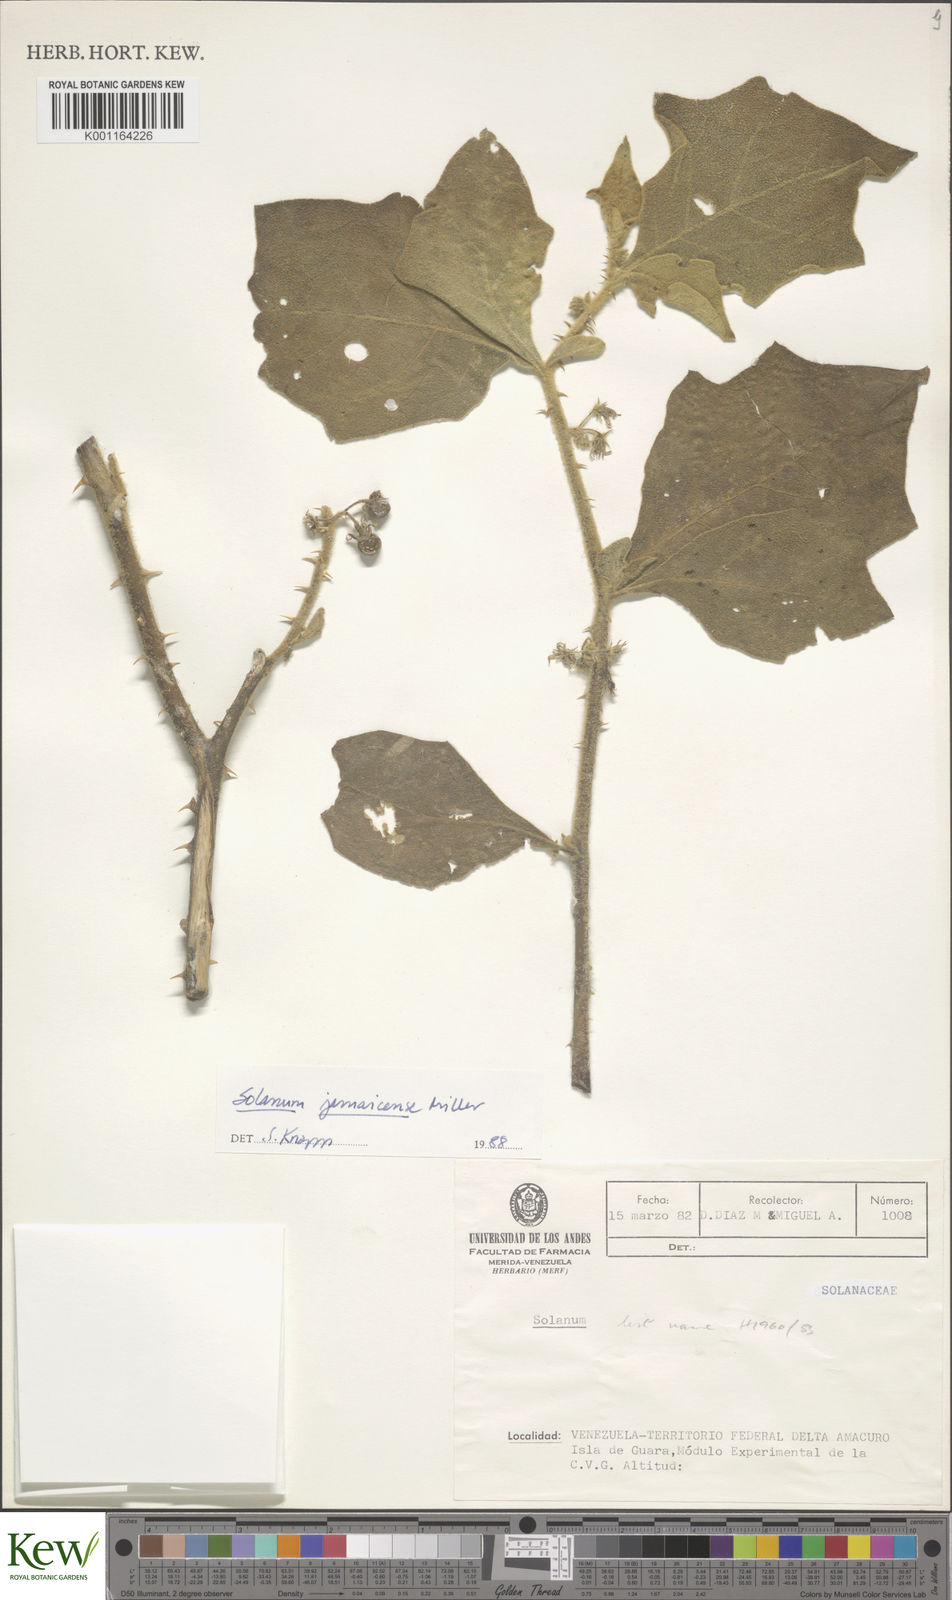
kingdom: Plantae
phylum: Tracheophyta
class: Magnoliopsida
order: Solanales
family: Solanaceae
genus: Solanum
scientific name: Solanum jamaicense
